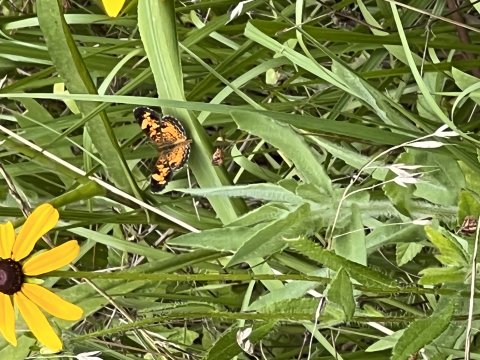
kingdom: Animalia
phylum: Arthropoda
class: Insecta
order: Lepidoptera
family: Nymphalidae
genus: Phyciodes
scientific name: Phyciodes tharos
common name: Pearl Crescent
